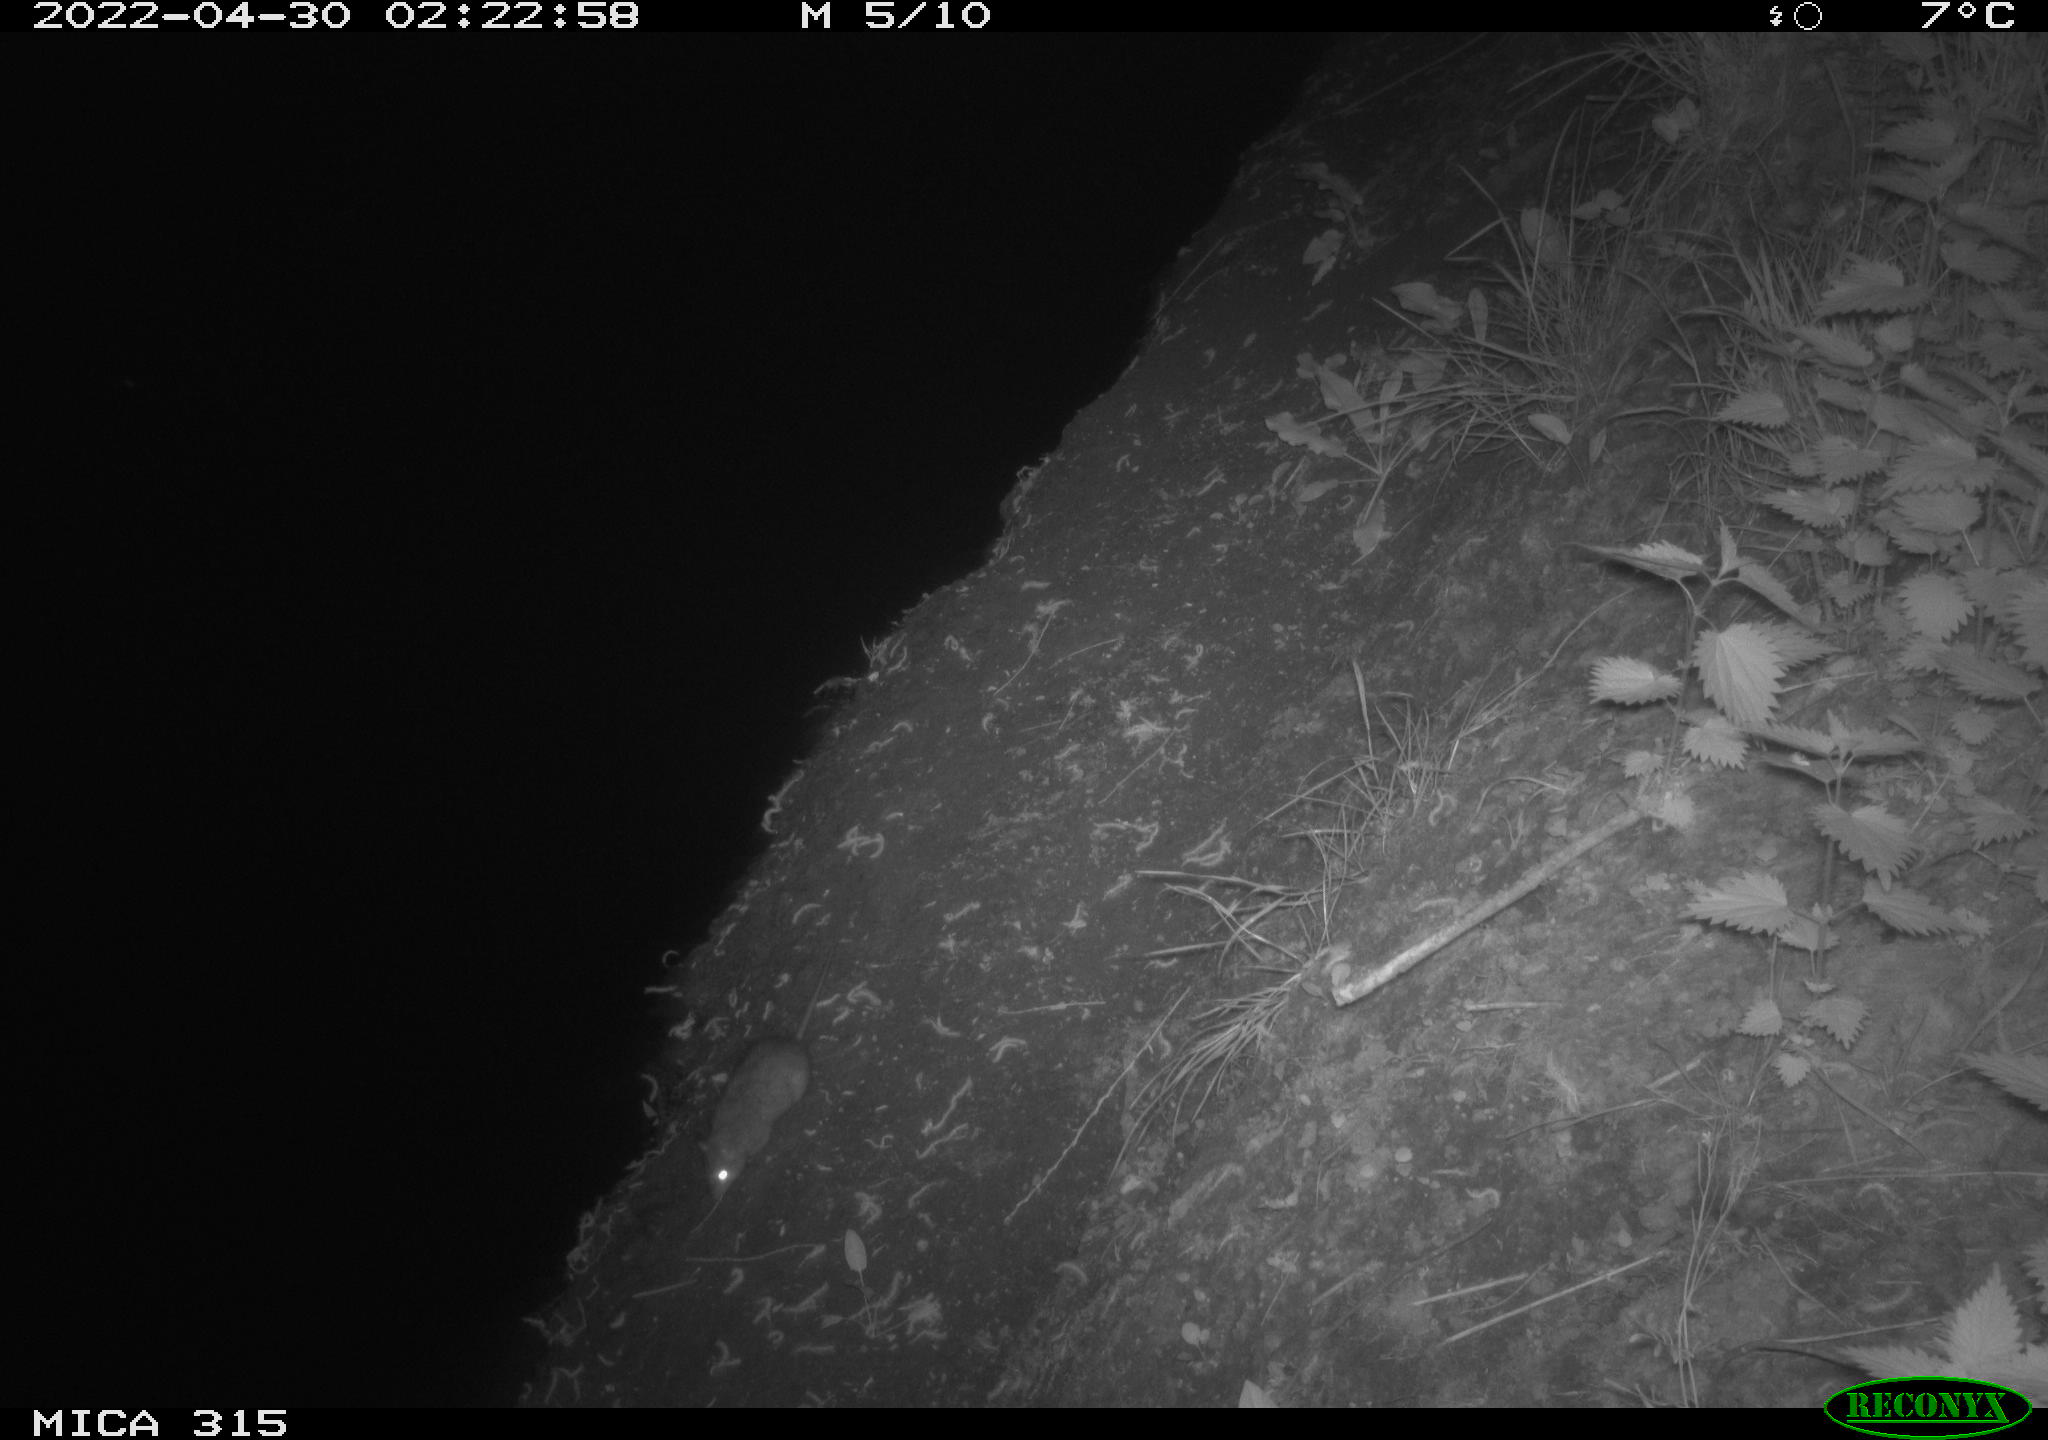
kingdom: Animalia
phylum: Chordata
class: Mammalia
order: Rodentia
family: Muridae
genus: Rattus
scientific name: Rattus norvegicus
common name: Brown rat
